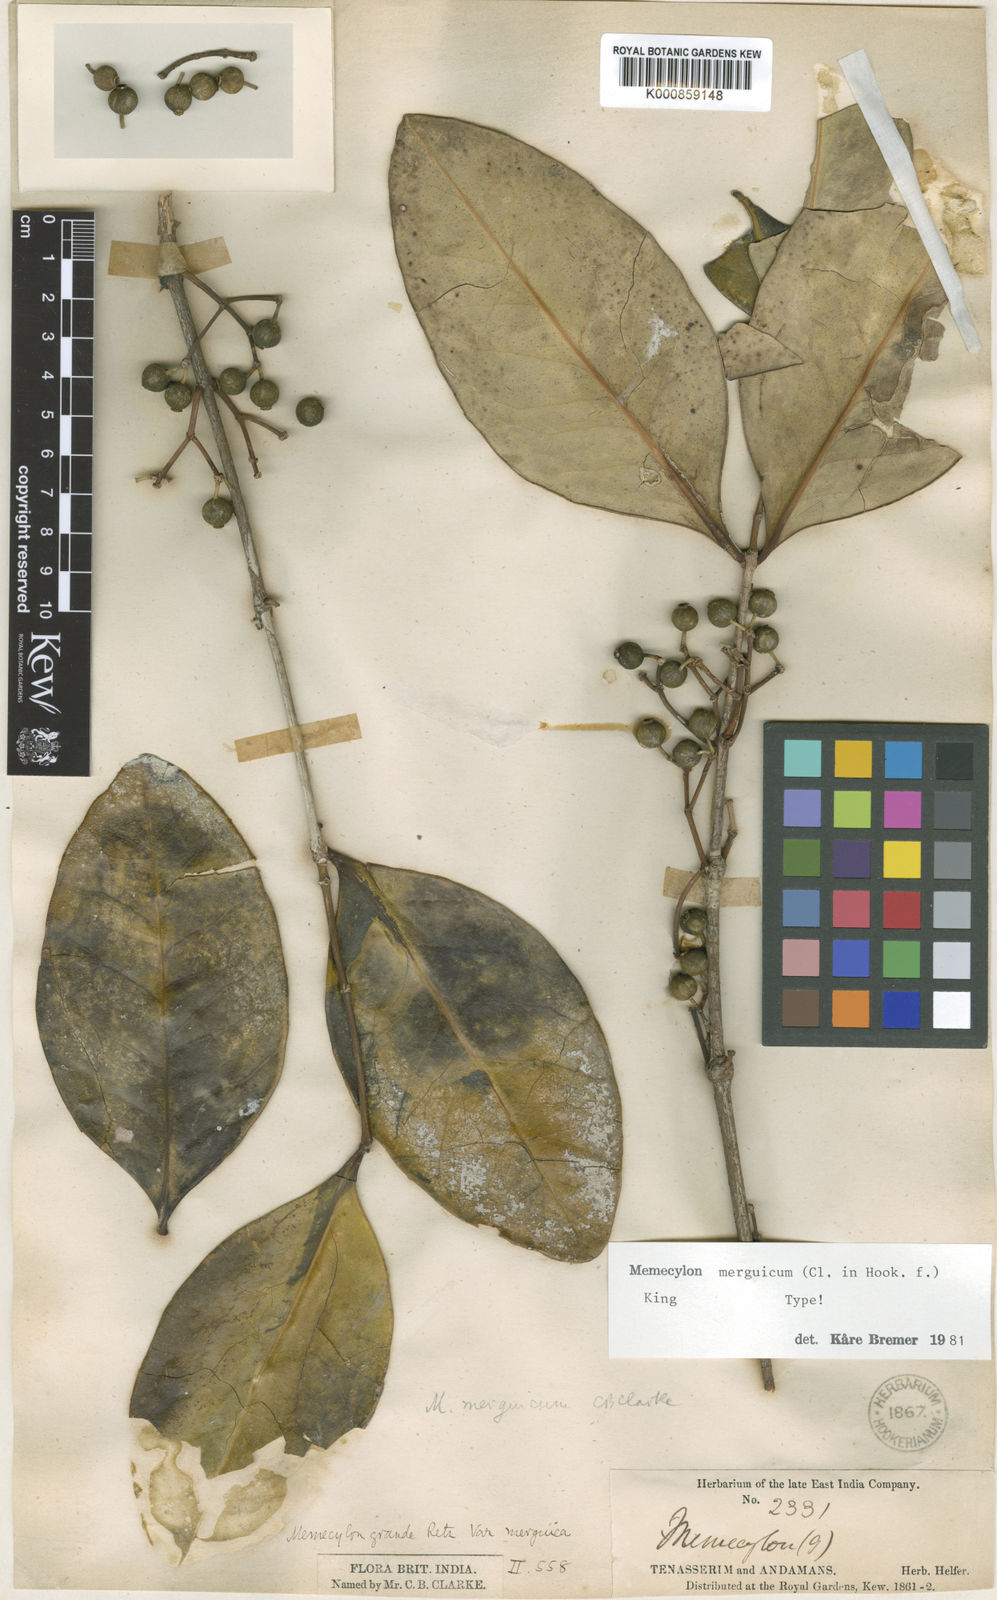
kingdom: Plantae
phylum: Tracheophyta
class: Magnoliopsida
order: Myrtales
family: Melastomataceae
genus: Memecylon
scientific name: Memecylon merguicum
